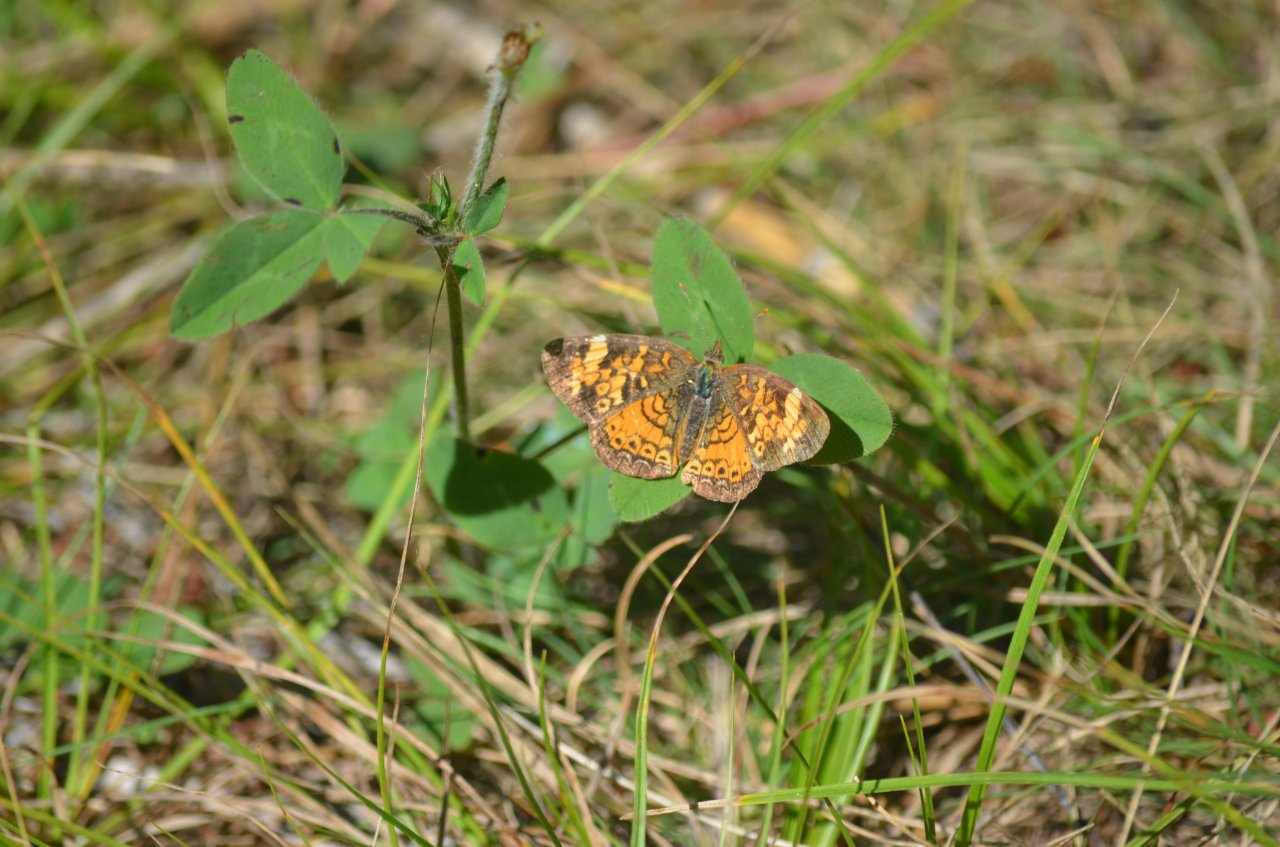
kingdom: Animalia
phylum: Arthropoda
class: Insecta
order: Lepidoptera
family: Nymphalidae
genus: Phyciodes
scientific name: Phyciodes tharos
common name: Northern Crescent
